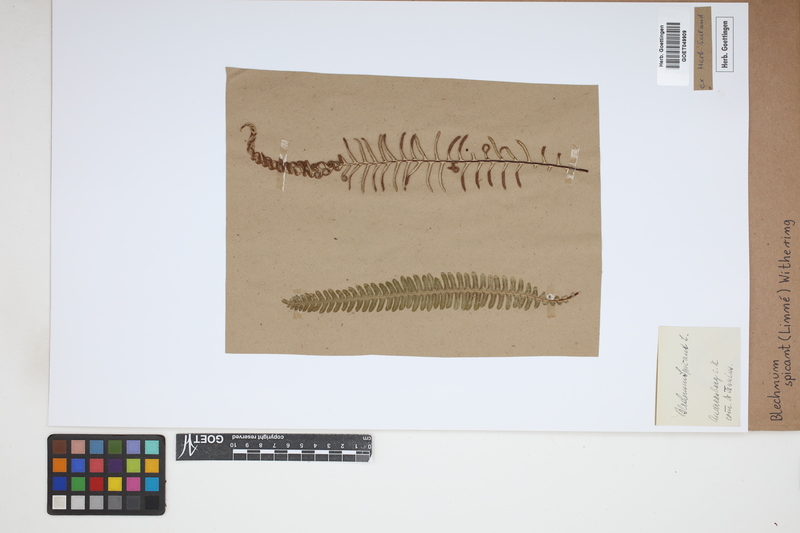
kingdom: Plantae
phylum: Tracheophyta
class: Polypodiopsida
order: Polypodiales
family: Blechnaceae
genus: Struthiopteris
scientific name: Struthiopteris spicant
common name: Deer fern
